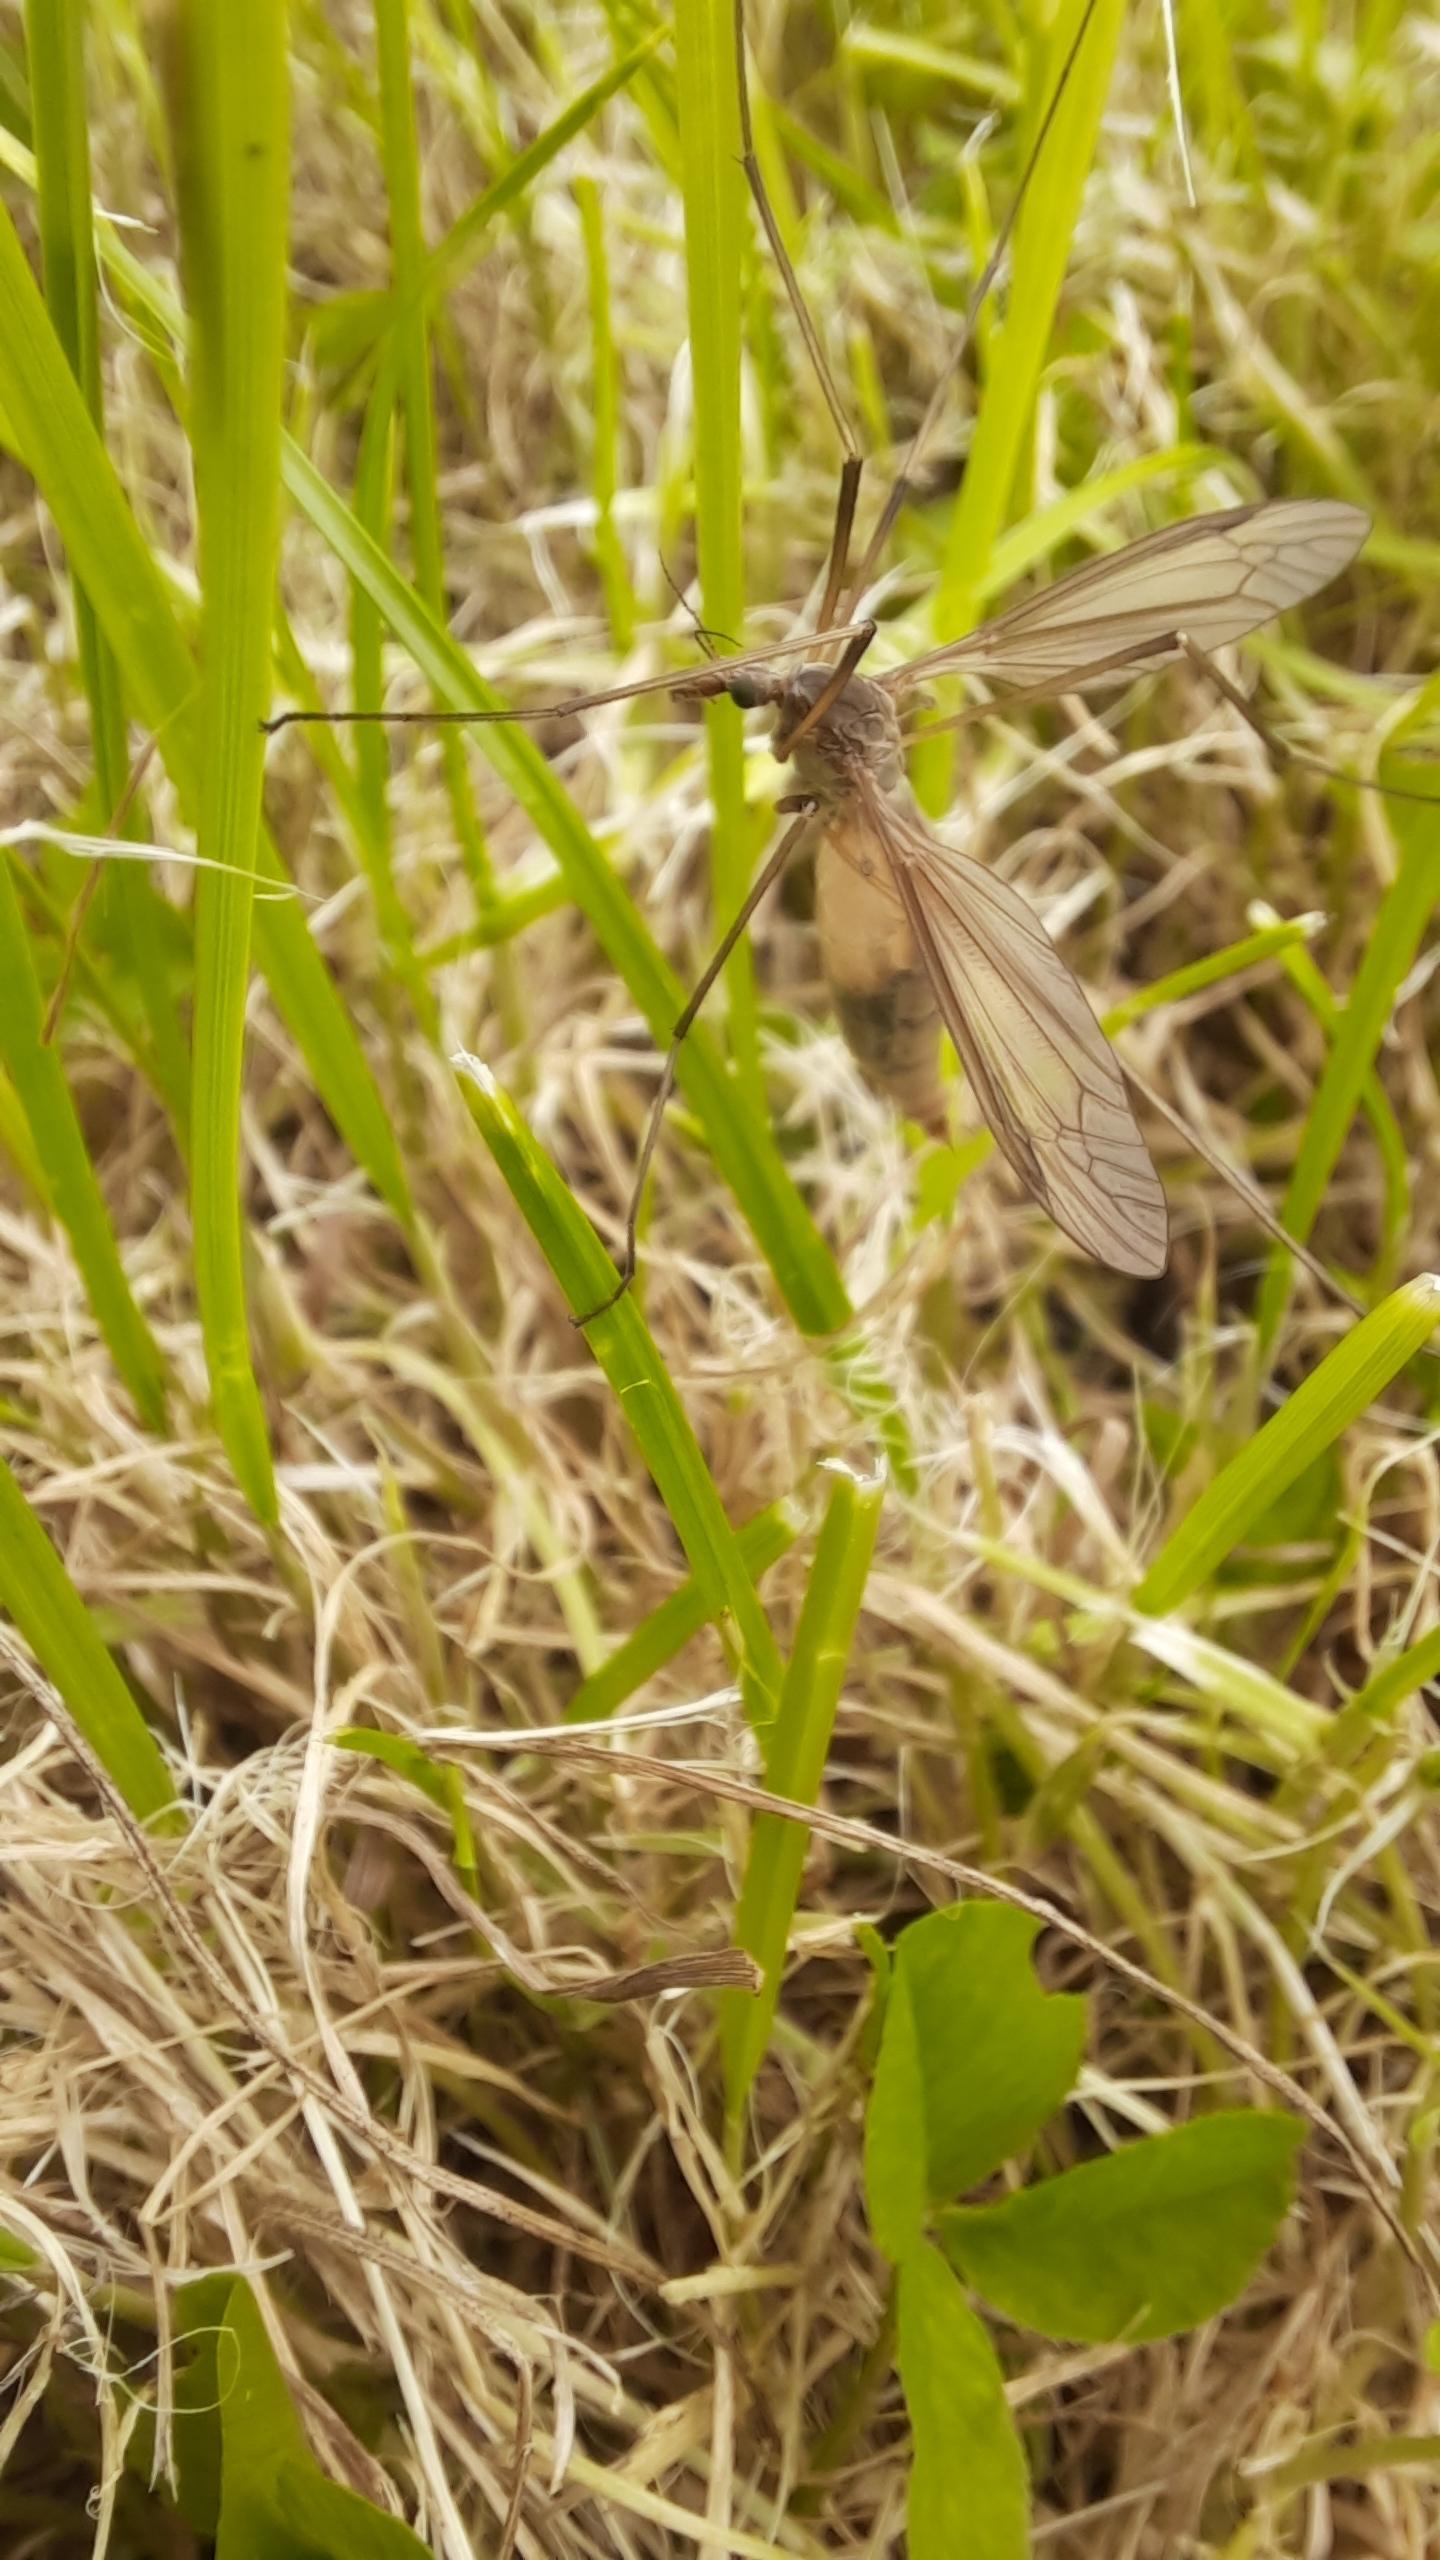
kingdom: Animalia
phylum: Arthropoda
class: Insecta
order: Diptera
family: Tipulidae
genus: Tipula
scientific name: Tipula paludosa
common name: Mosestankelben
